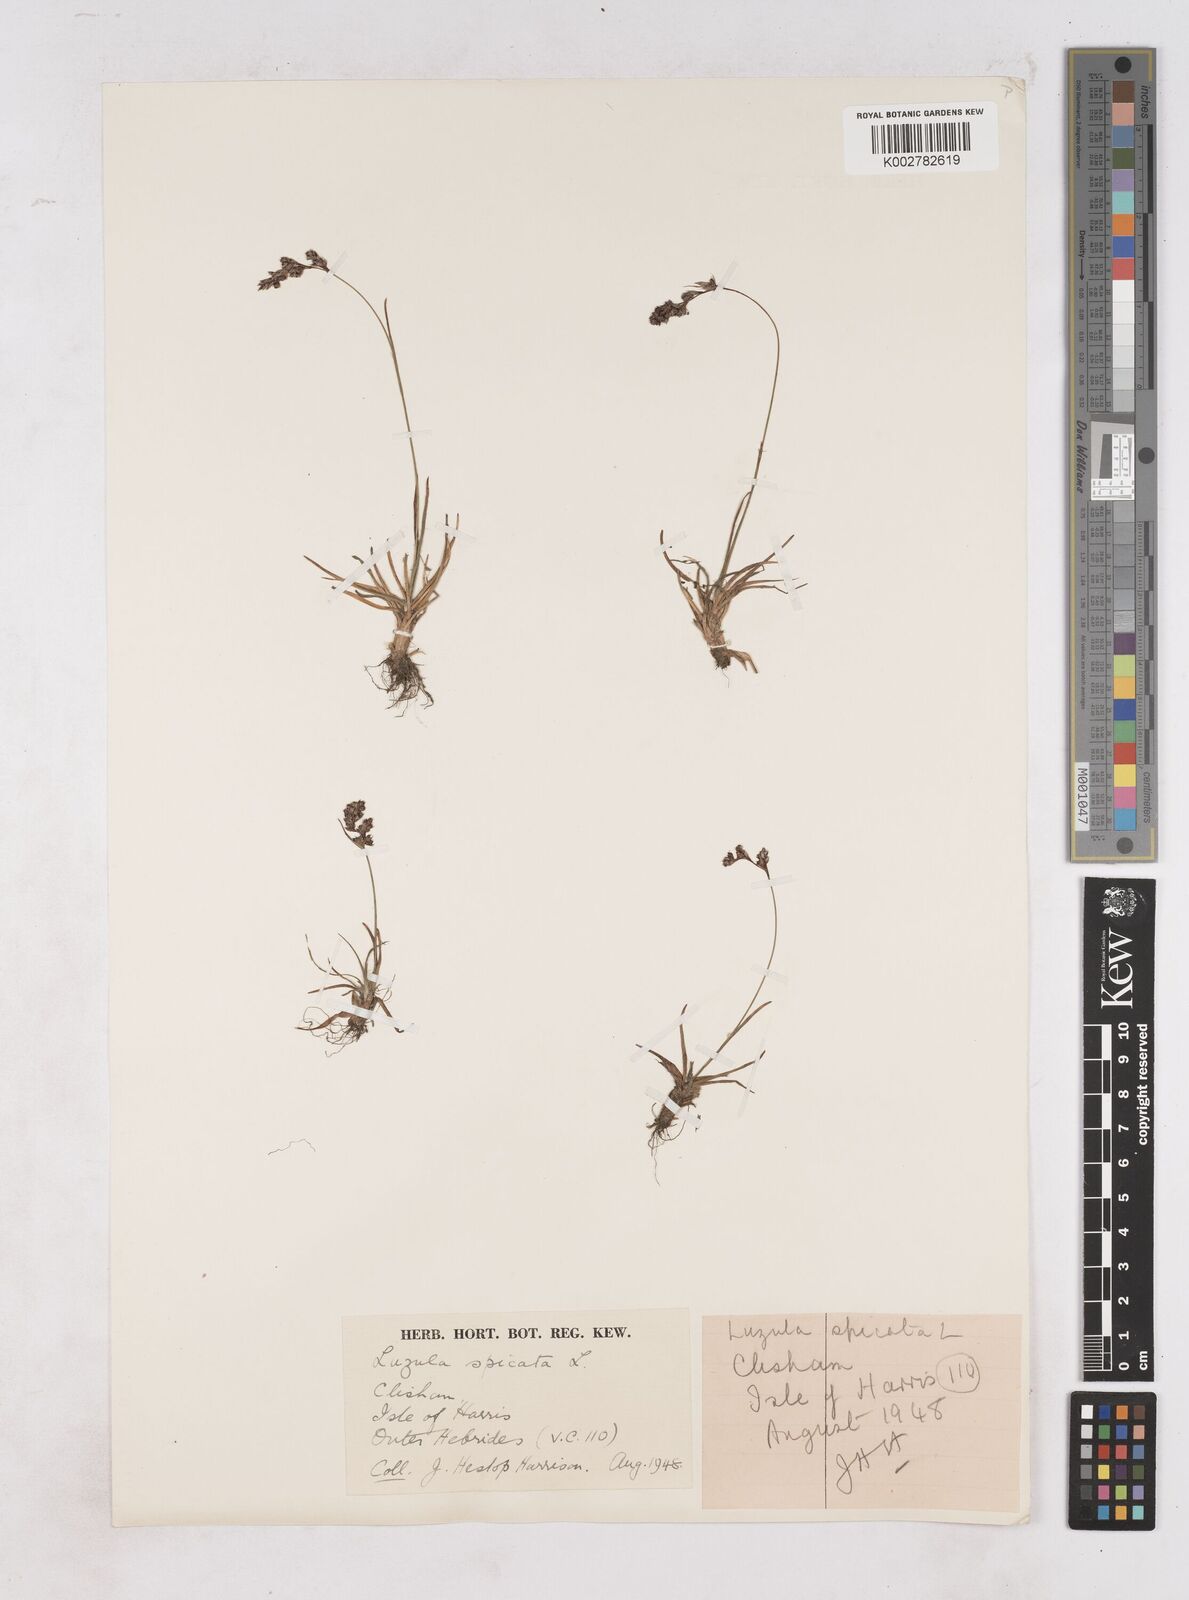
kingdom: Plantae
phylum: Tracheophyta
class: Liliopsida
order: Poales
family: Juncaceae
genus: Luzula
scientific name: Luzula spicata
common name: Spiked wood-rush
